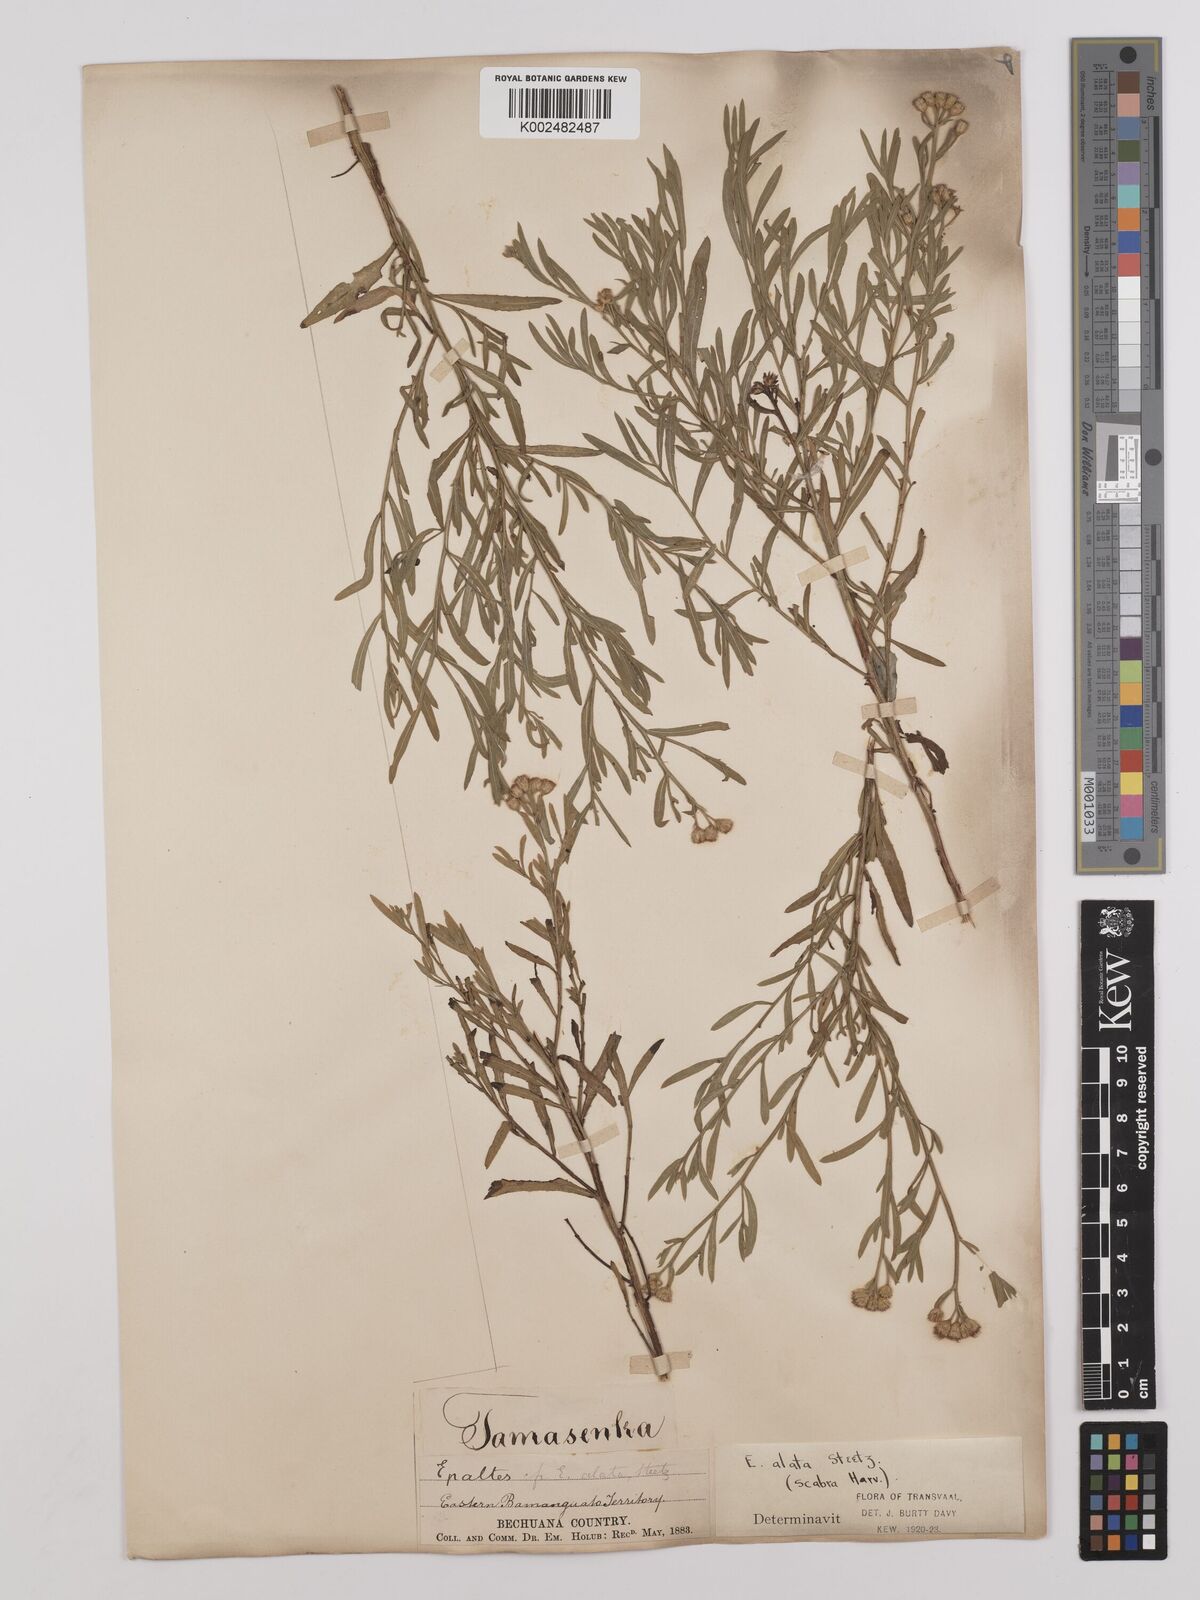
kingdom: Plantae
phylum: Tracheophyta
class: Magnoliopsida
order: Asterales
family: Asteraceae
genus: Litogyne
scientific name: Litogyne gariepina
